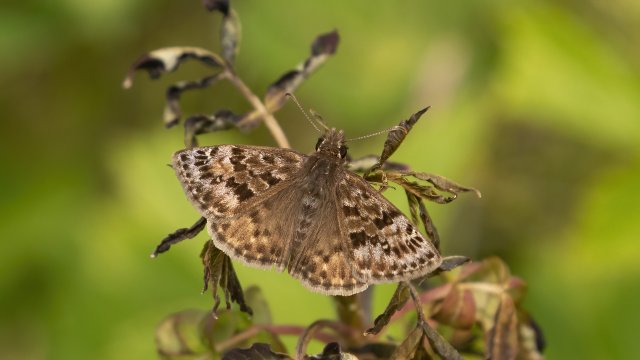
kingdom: Animalia
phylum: Arthropoda
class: Insecta
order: Lepidoptera
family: Hesperiidae
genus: Erynnis
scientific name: Erynnis martialis
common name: Mottled Duskywing
